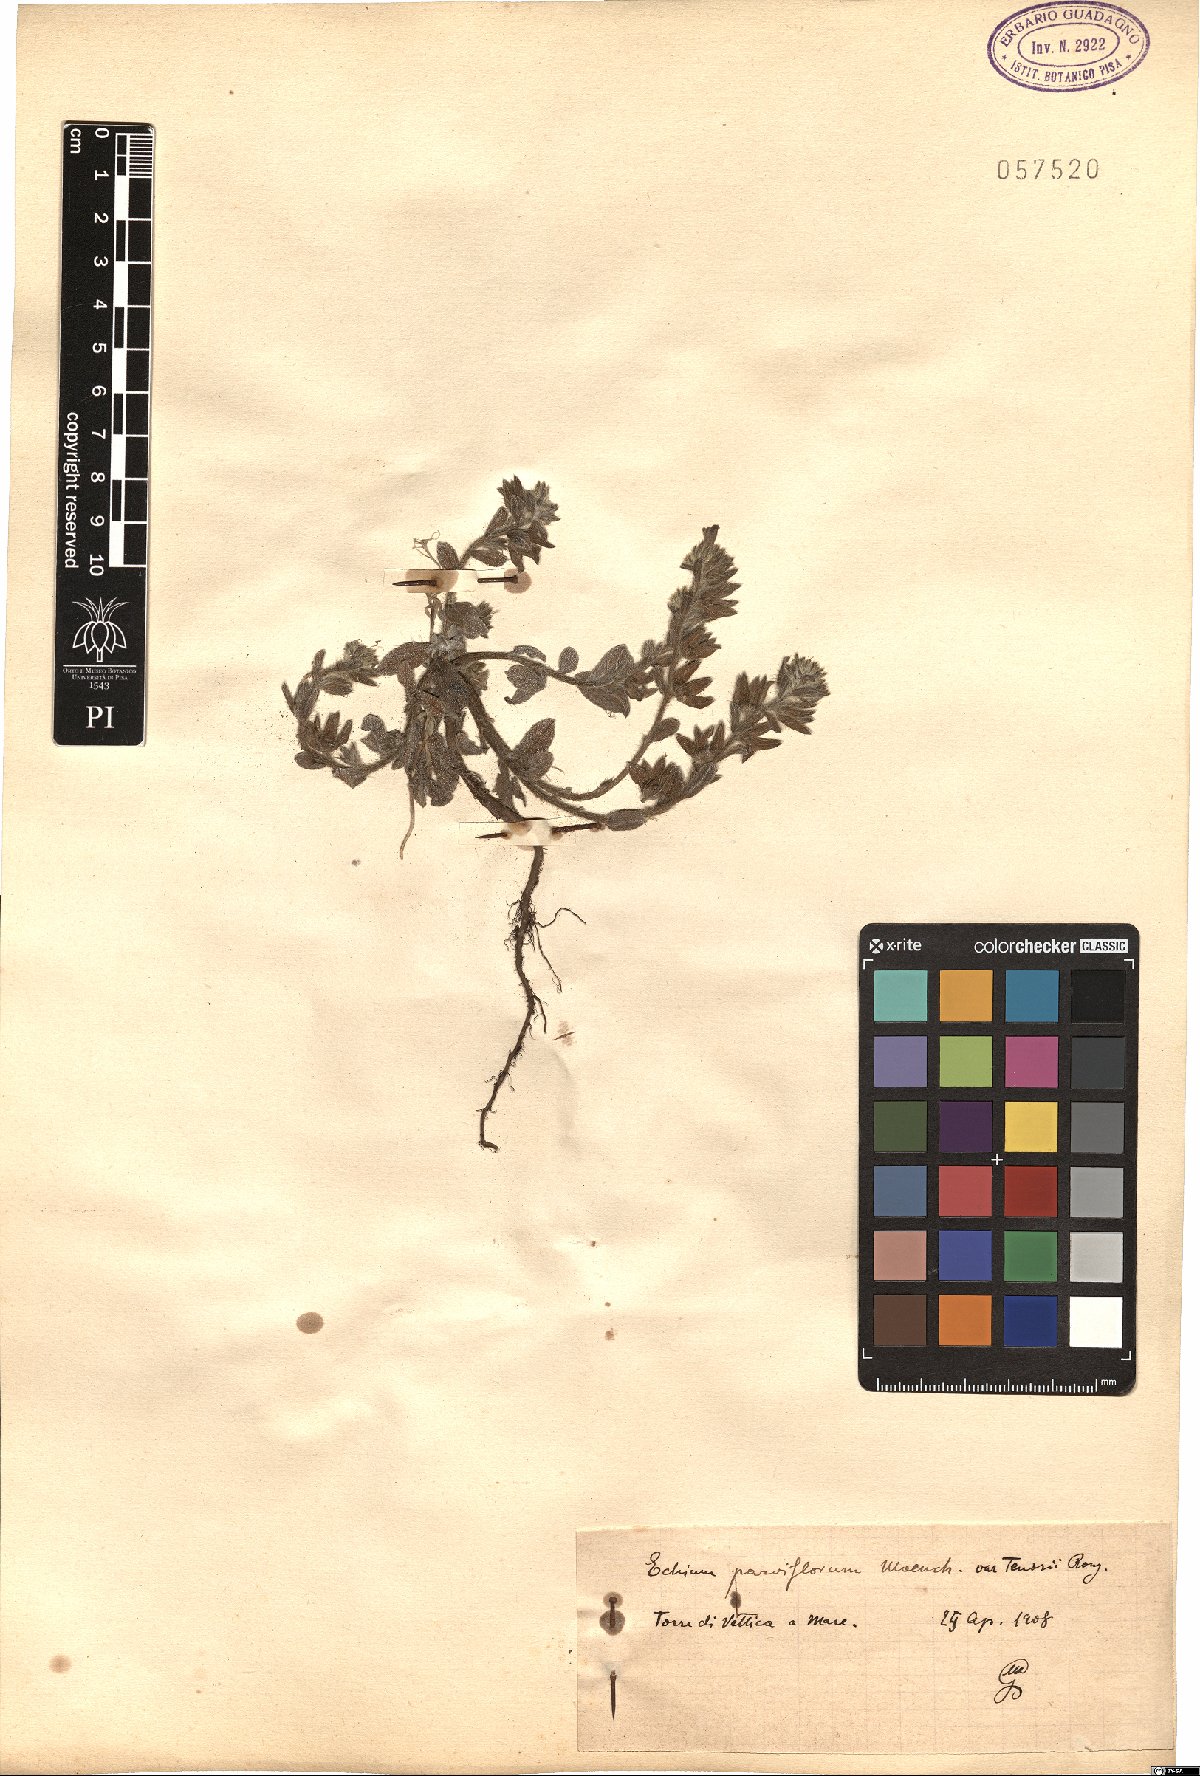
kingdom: Plantae
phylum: Tracheophyta
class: Magnoliopsida
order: Boraginales
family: Boraginaceae
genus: Echium
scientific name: Echium parviflorum
